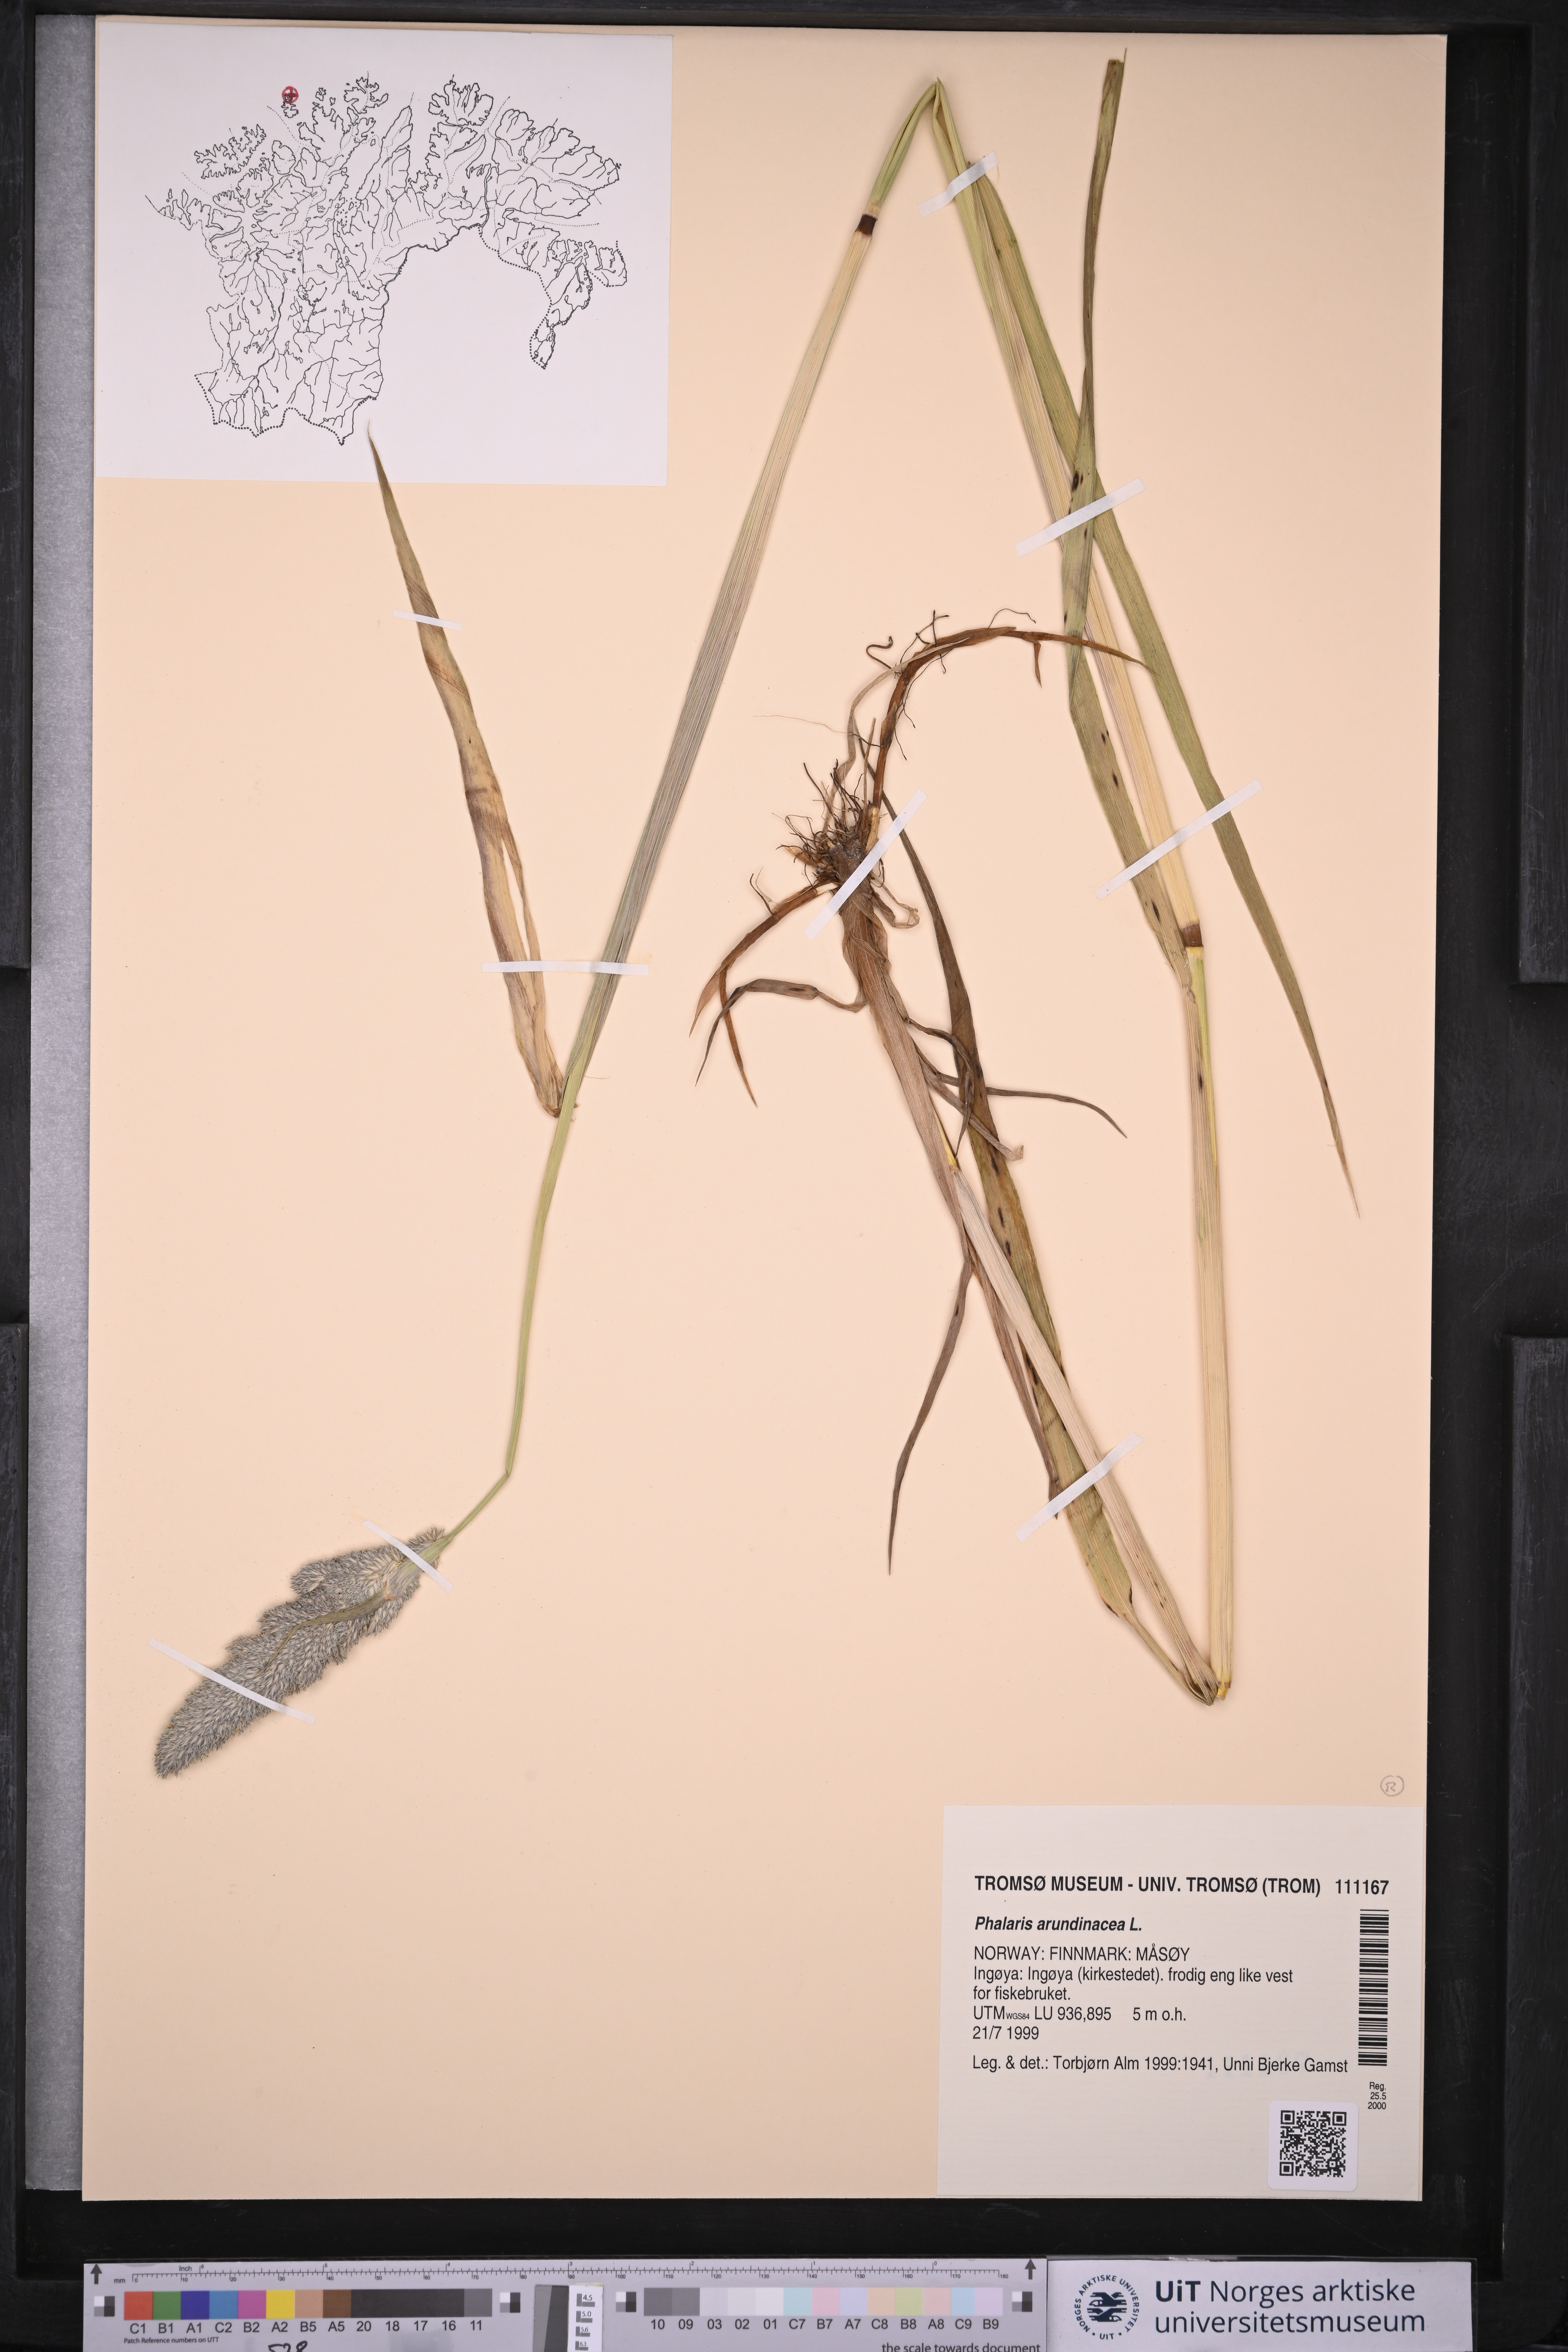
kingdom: Plantae
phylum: Tracheophyta
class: Liliopsida
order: Poales
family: Poaceae
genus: Phalaris
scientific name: Phalaris arundinacea
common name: Reed canary-grass
